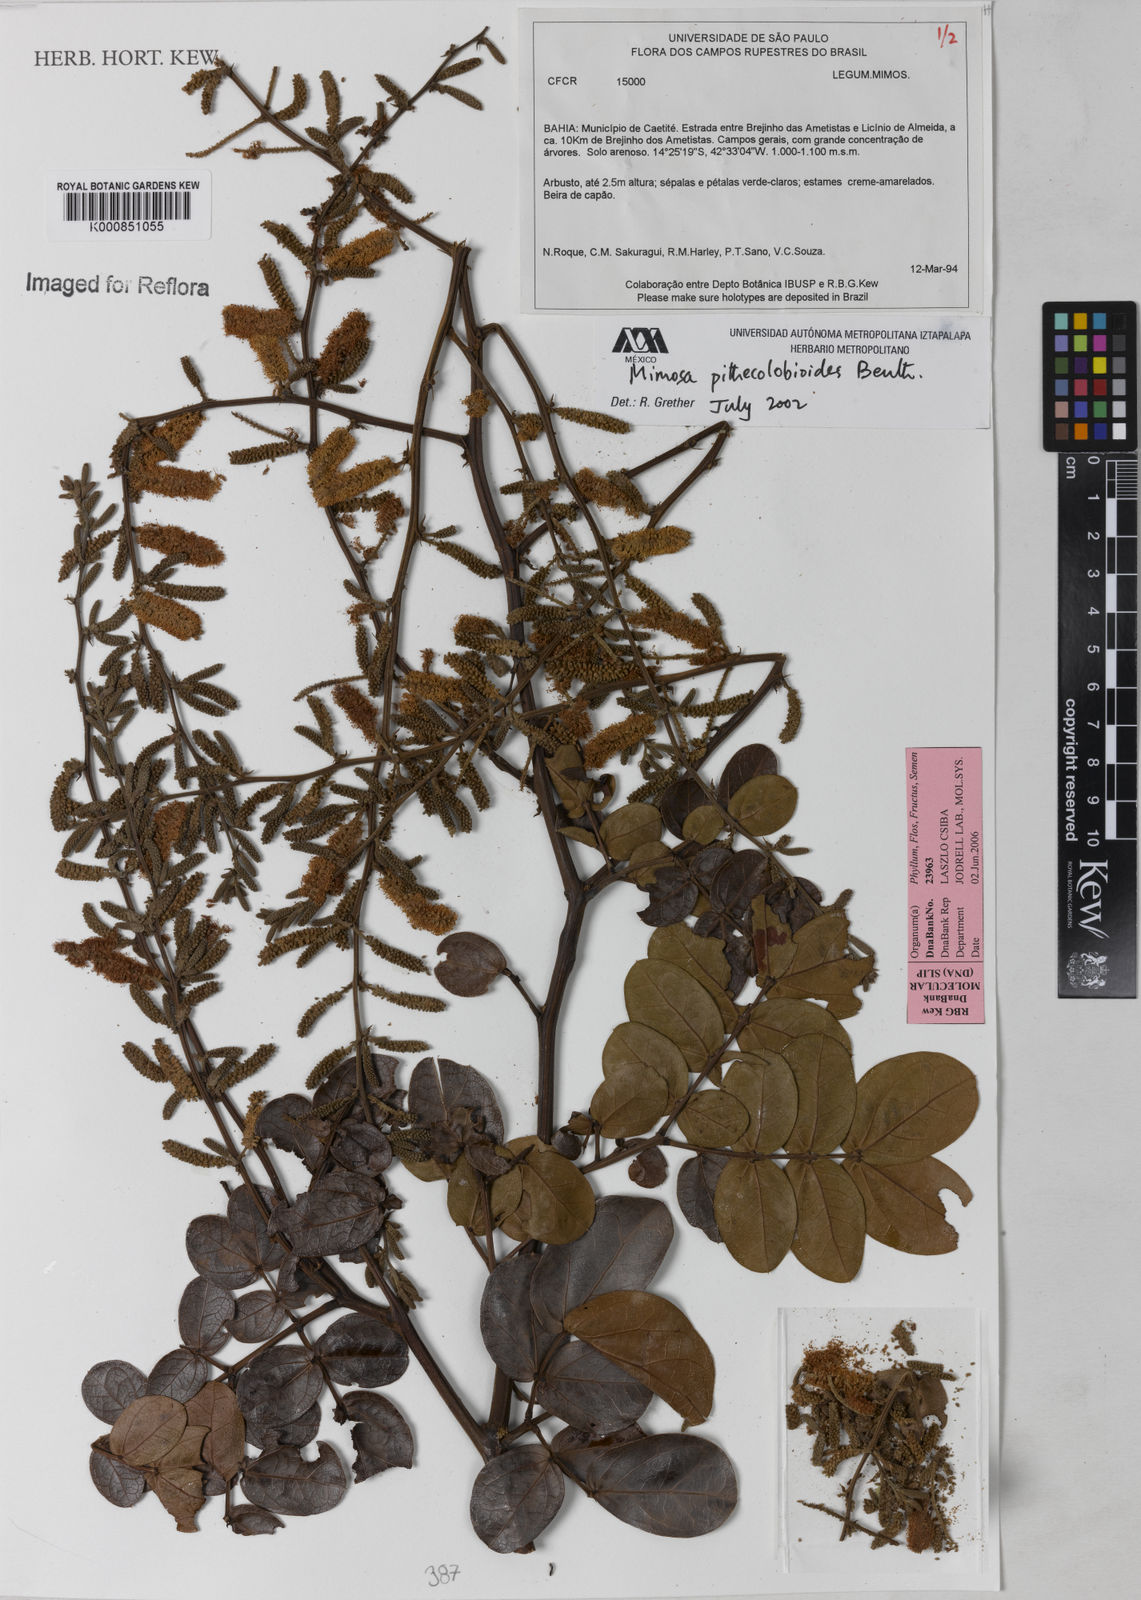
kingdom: Plantae
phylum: Tracheophyta
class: Magnoliopsida
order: Fabales
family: Fabaceae
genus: Mimosa
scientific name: Mimosa pithecolobioides
